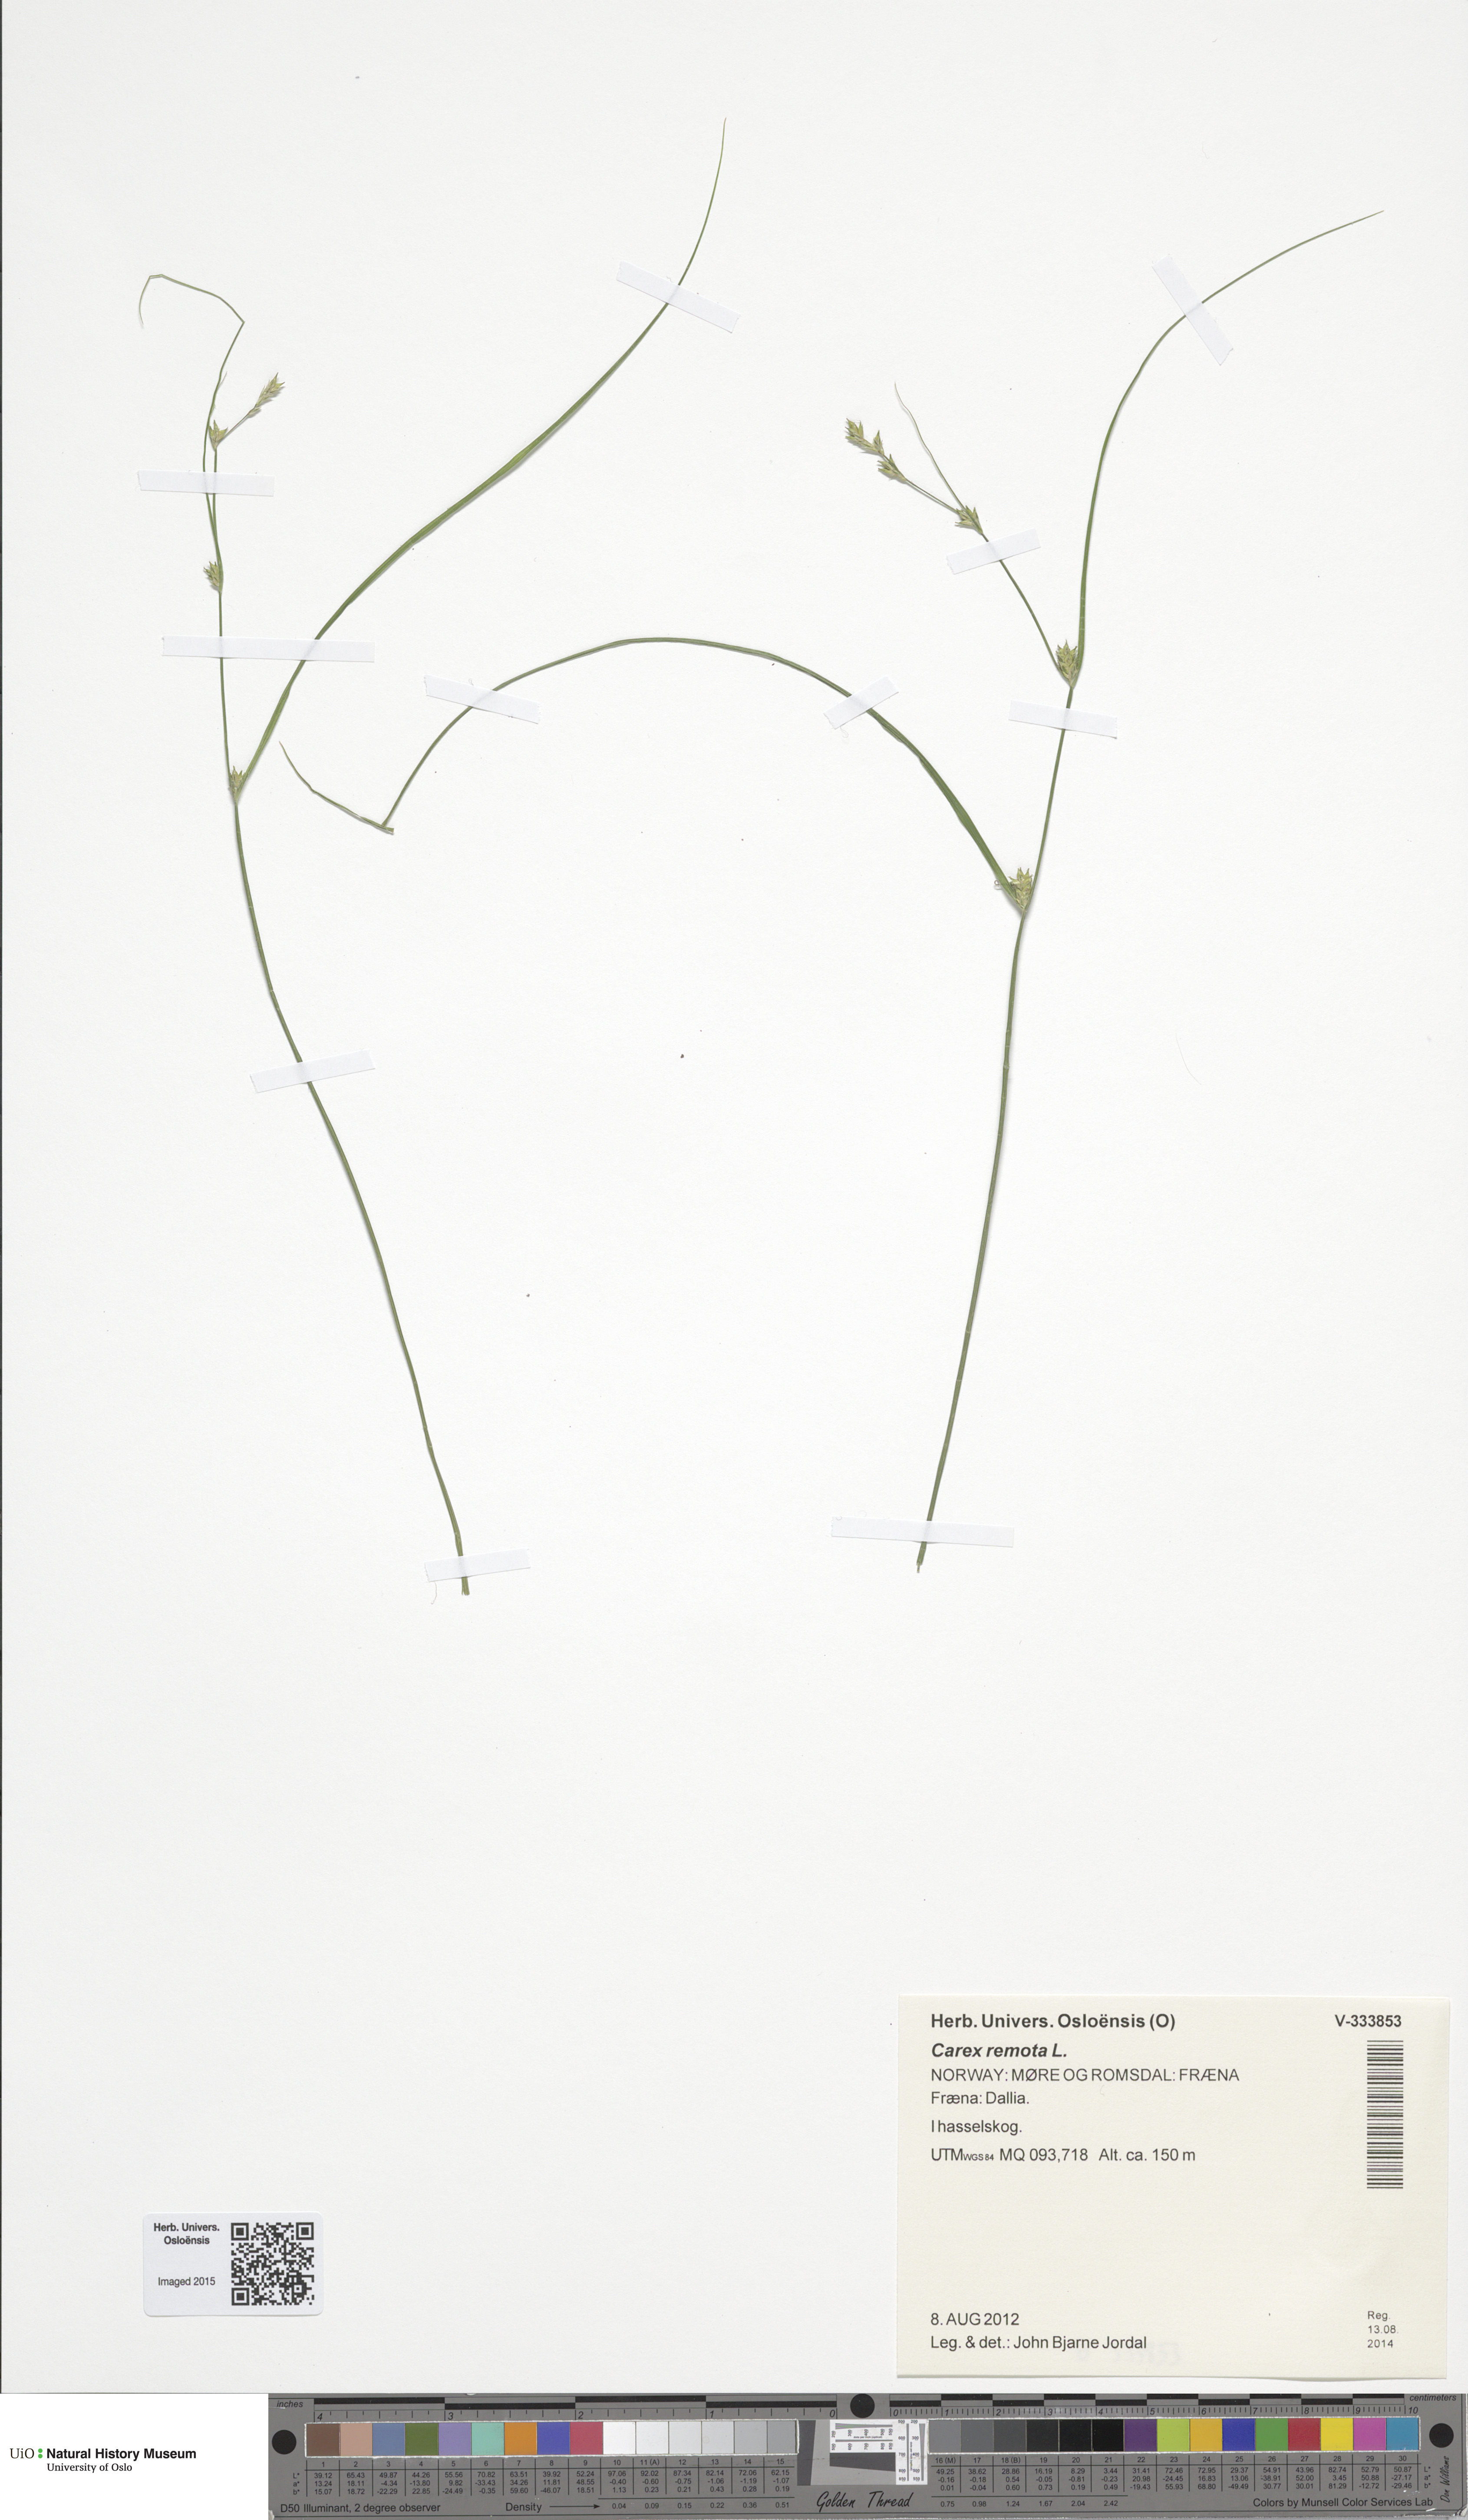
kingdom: Plantae
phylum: Tracheophyta
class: Liliopsida
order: Poales
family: Cyperaceae
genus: Carex
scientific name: Carex remota
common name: Remote sedge
